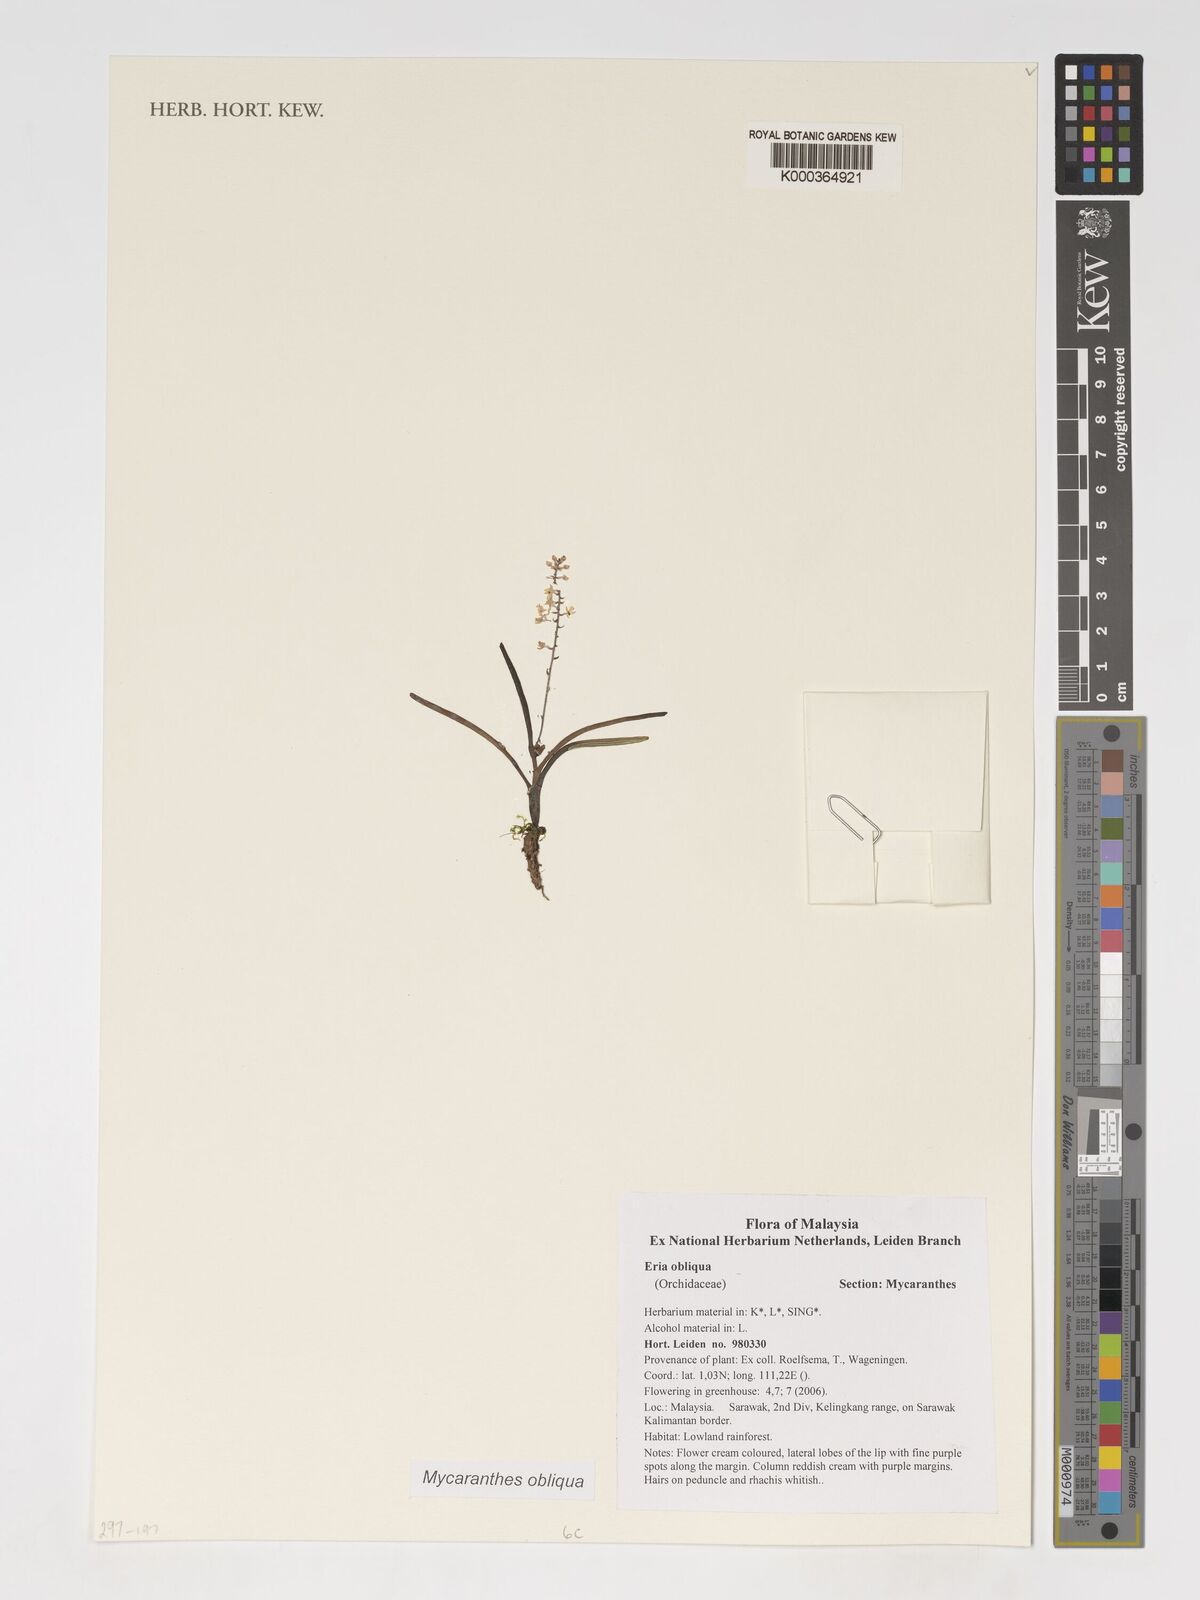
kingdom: Plantae
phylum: Tracheophyta
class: Liliopsida
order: Asparagales
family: Orchidaceae
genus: Mycaranthes
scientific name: Mycaranthes obliqua
